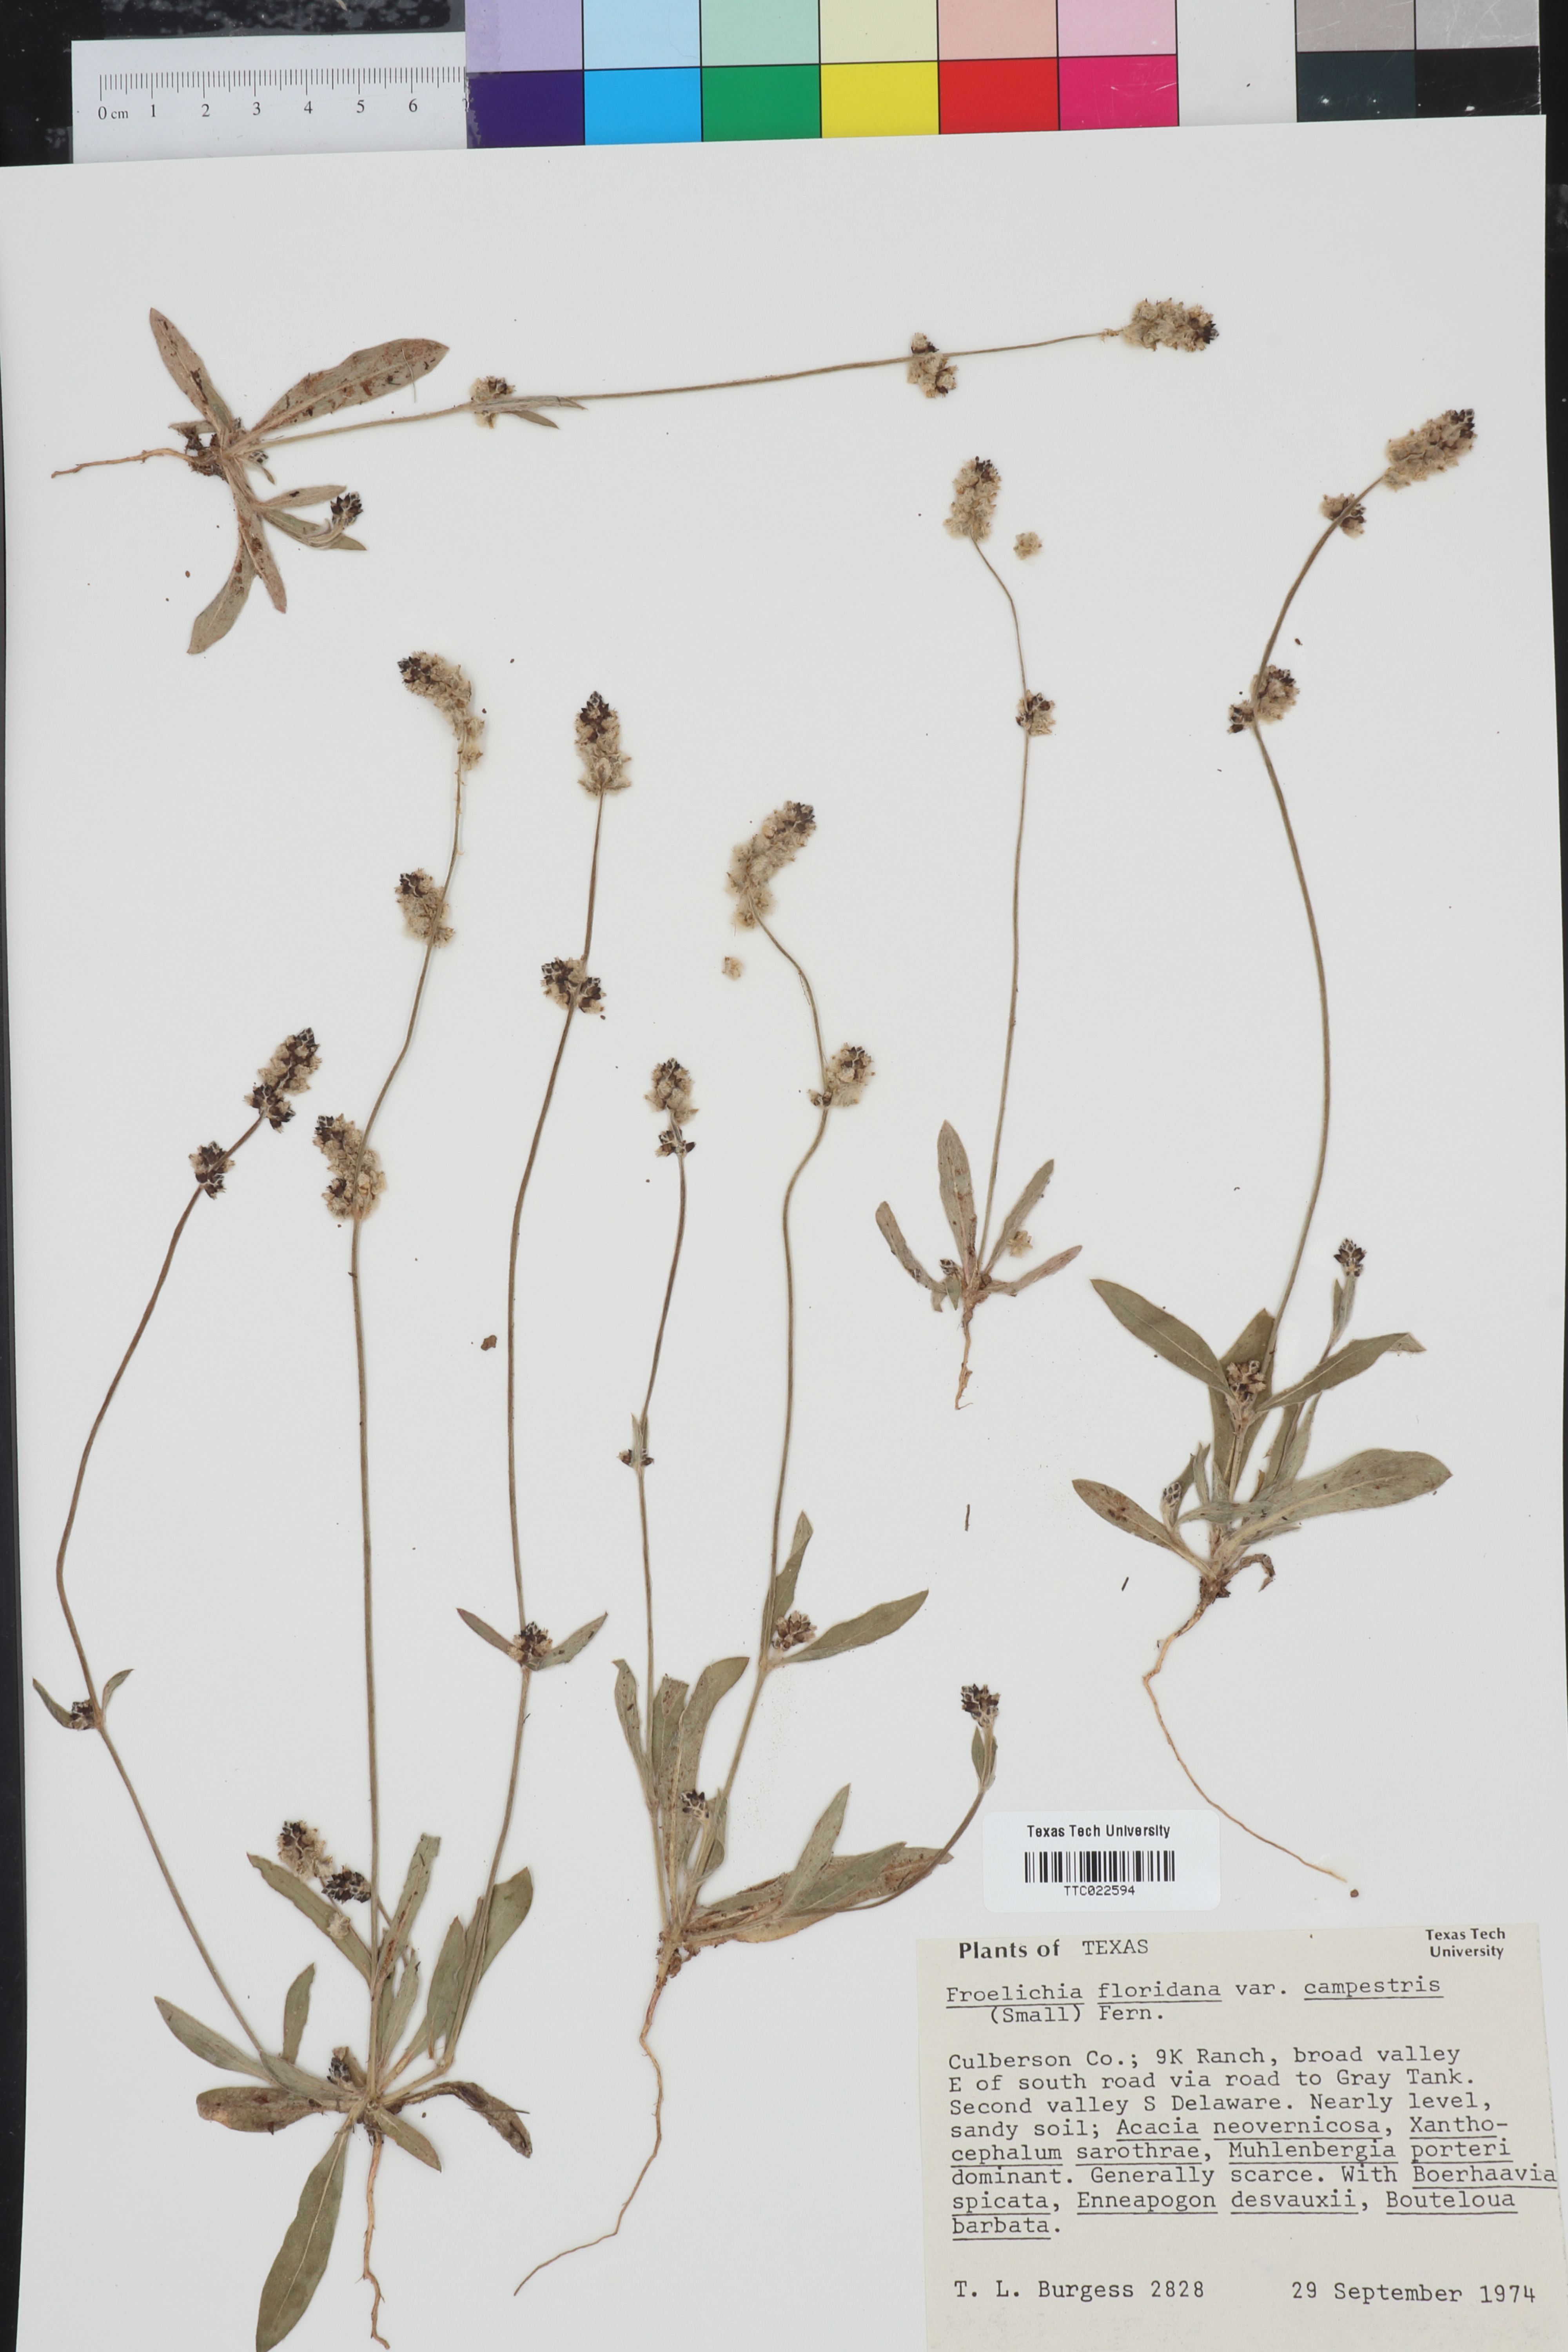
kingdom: Plantae
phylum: Tracheophyta
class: Magnoliopsida
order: Caryophyllales
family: Amaranthaceae
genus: Froelichia
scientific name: Froelichia floridana
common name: Florida snake-cotton
